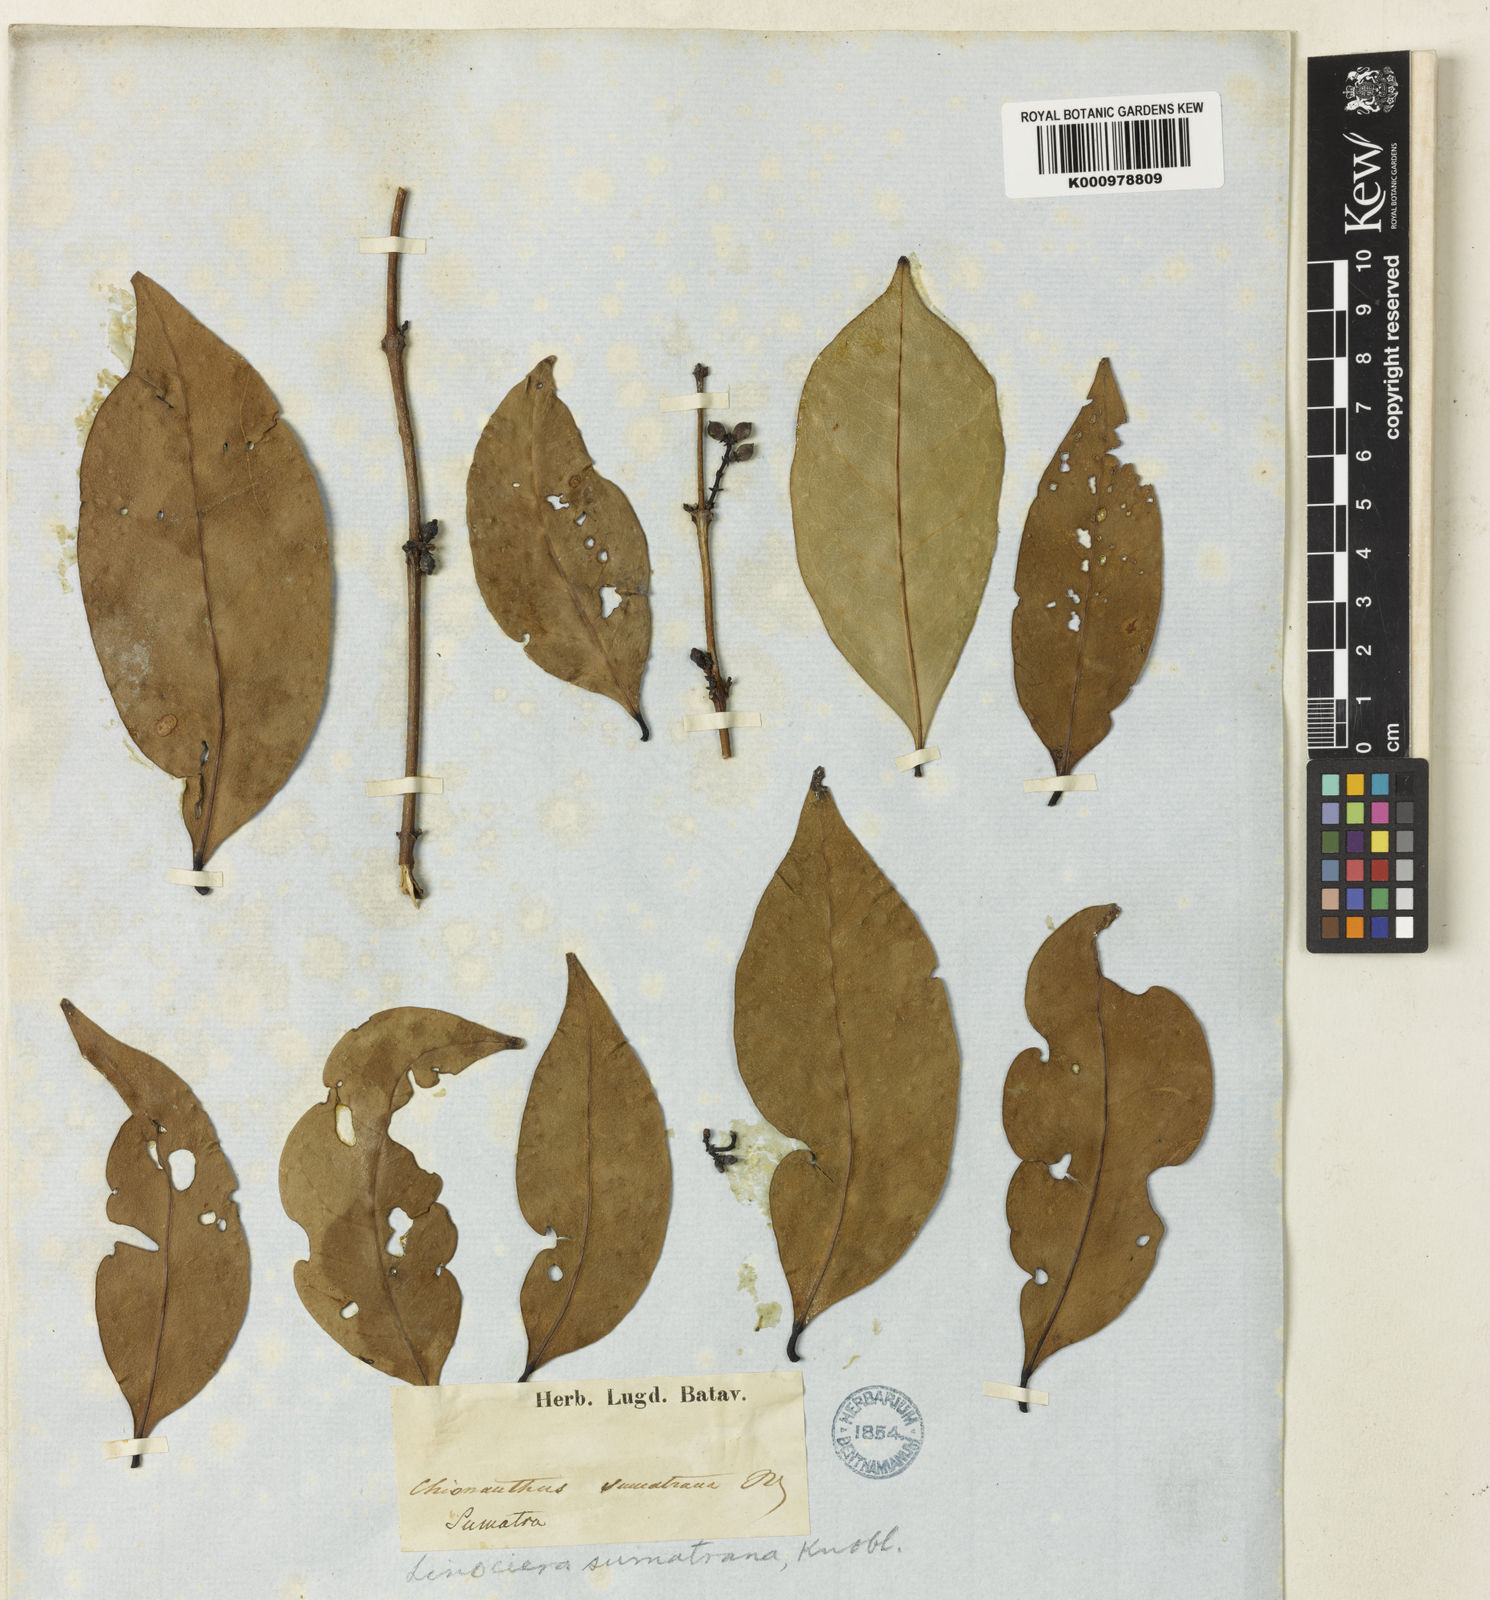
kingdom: Plantae
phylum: Tracheophyta
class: Magnoliopsida
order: Lamiales
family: Oleaceae
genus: Chionanthus
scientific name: Chionanthus spicatus
